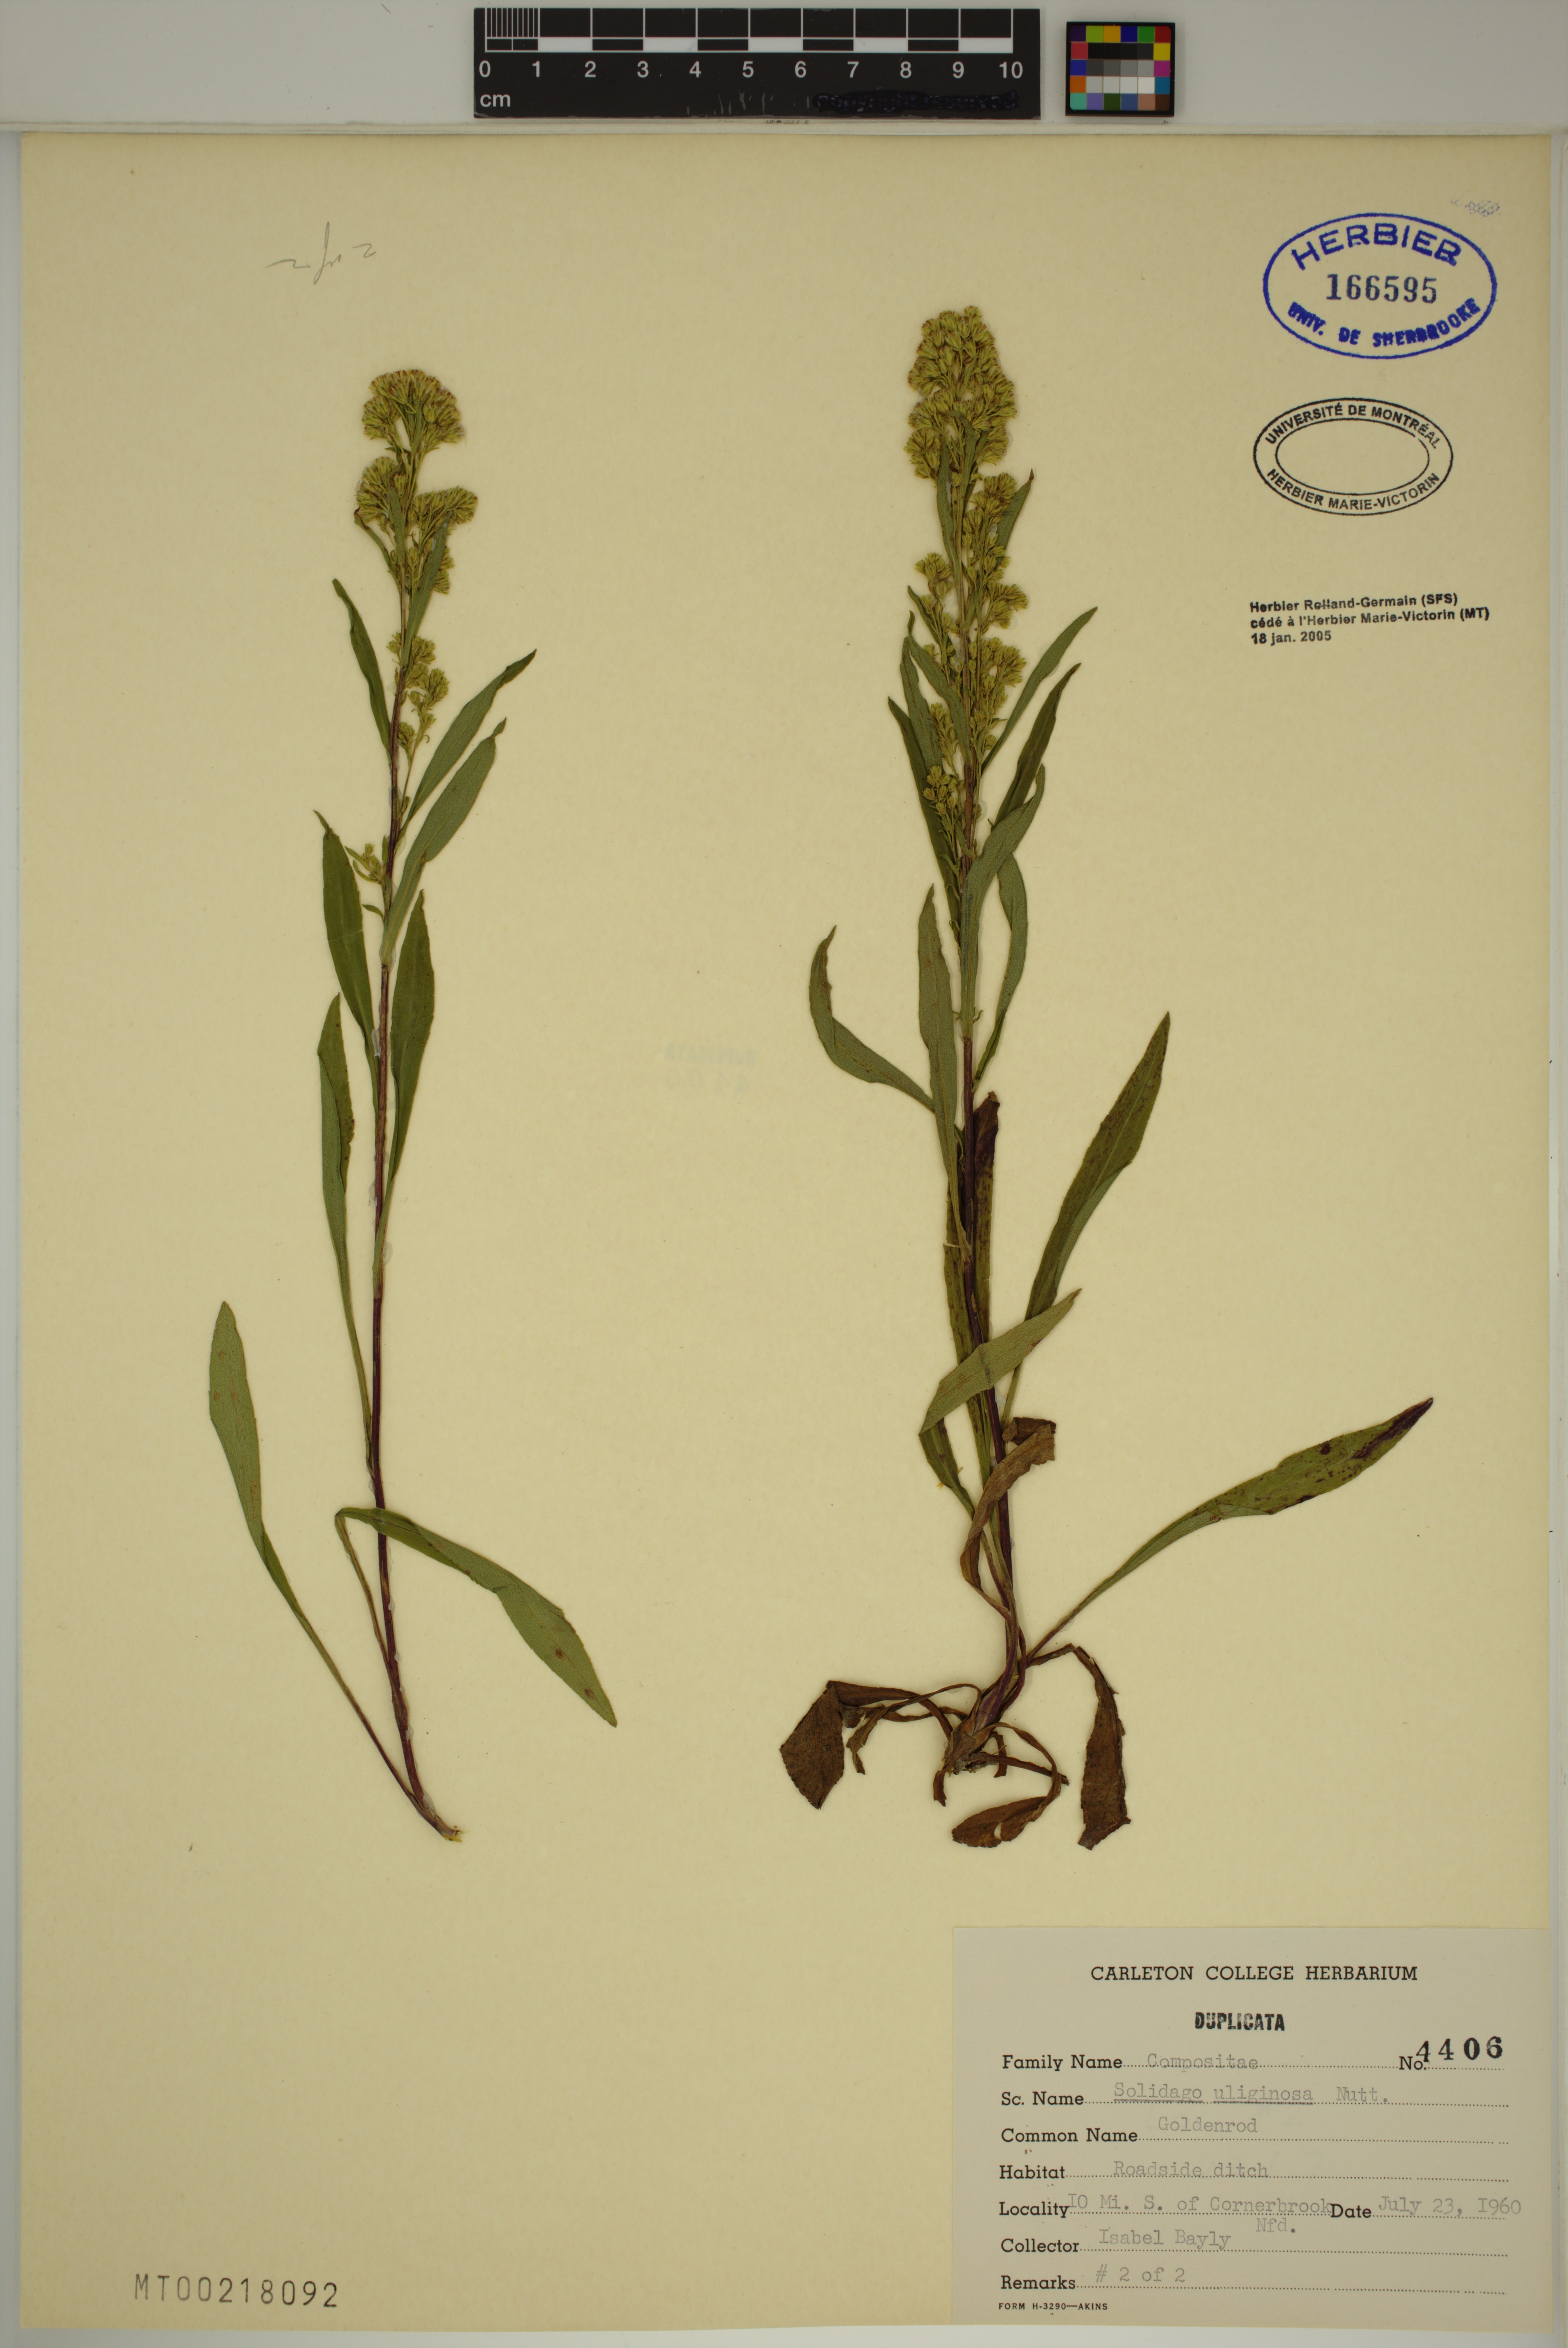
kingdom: Plantae
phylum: Tracheophyta
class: Magnoliopsida
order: Asterales
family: Asteraceae
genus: Solidago
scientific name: Solidago uliginosa
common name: Bog goldenrod
